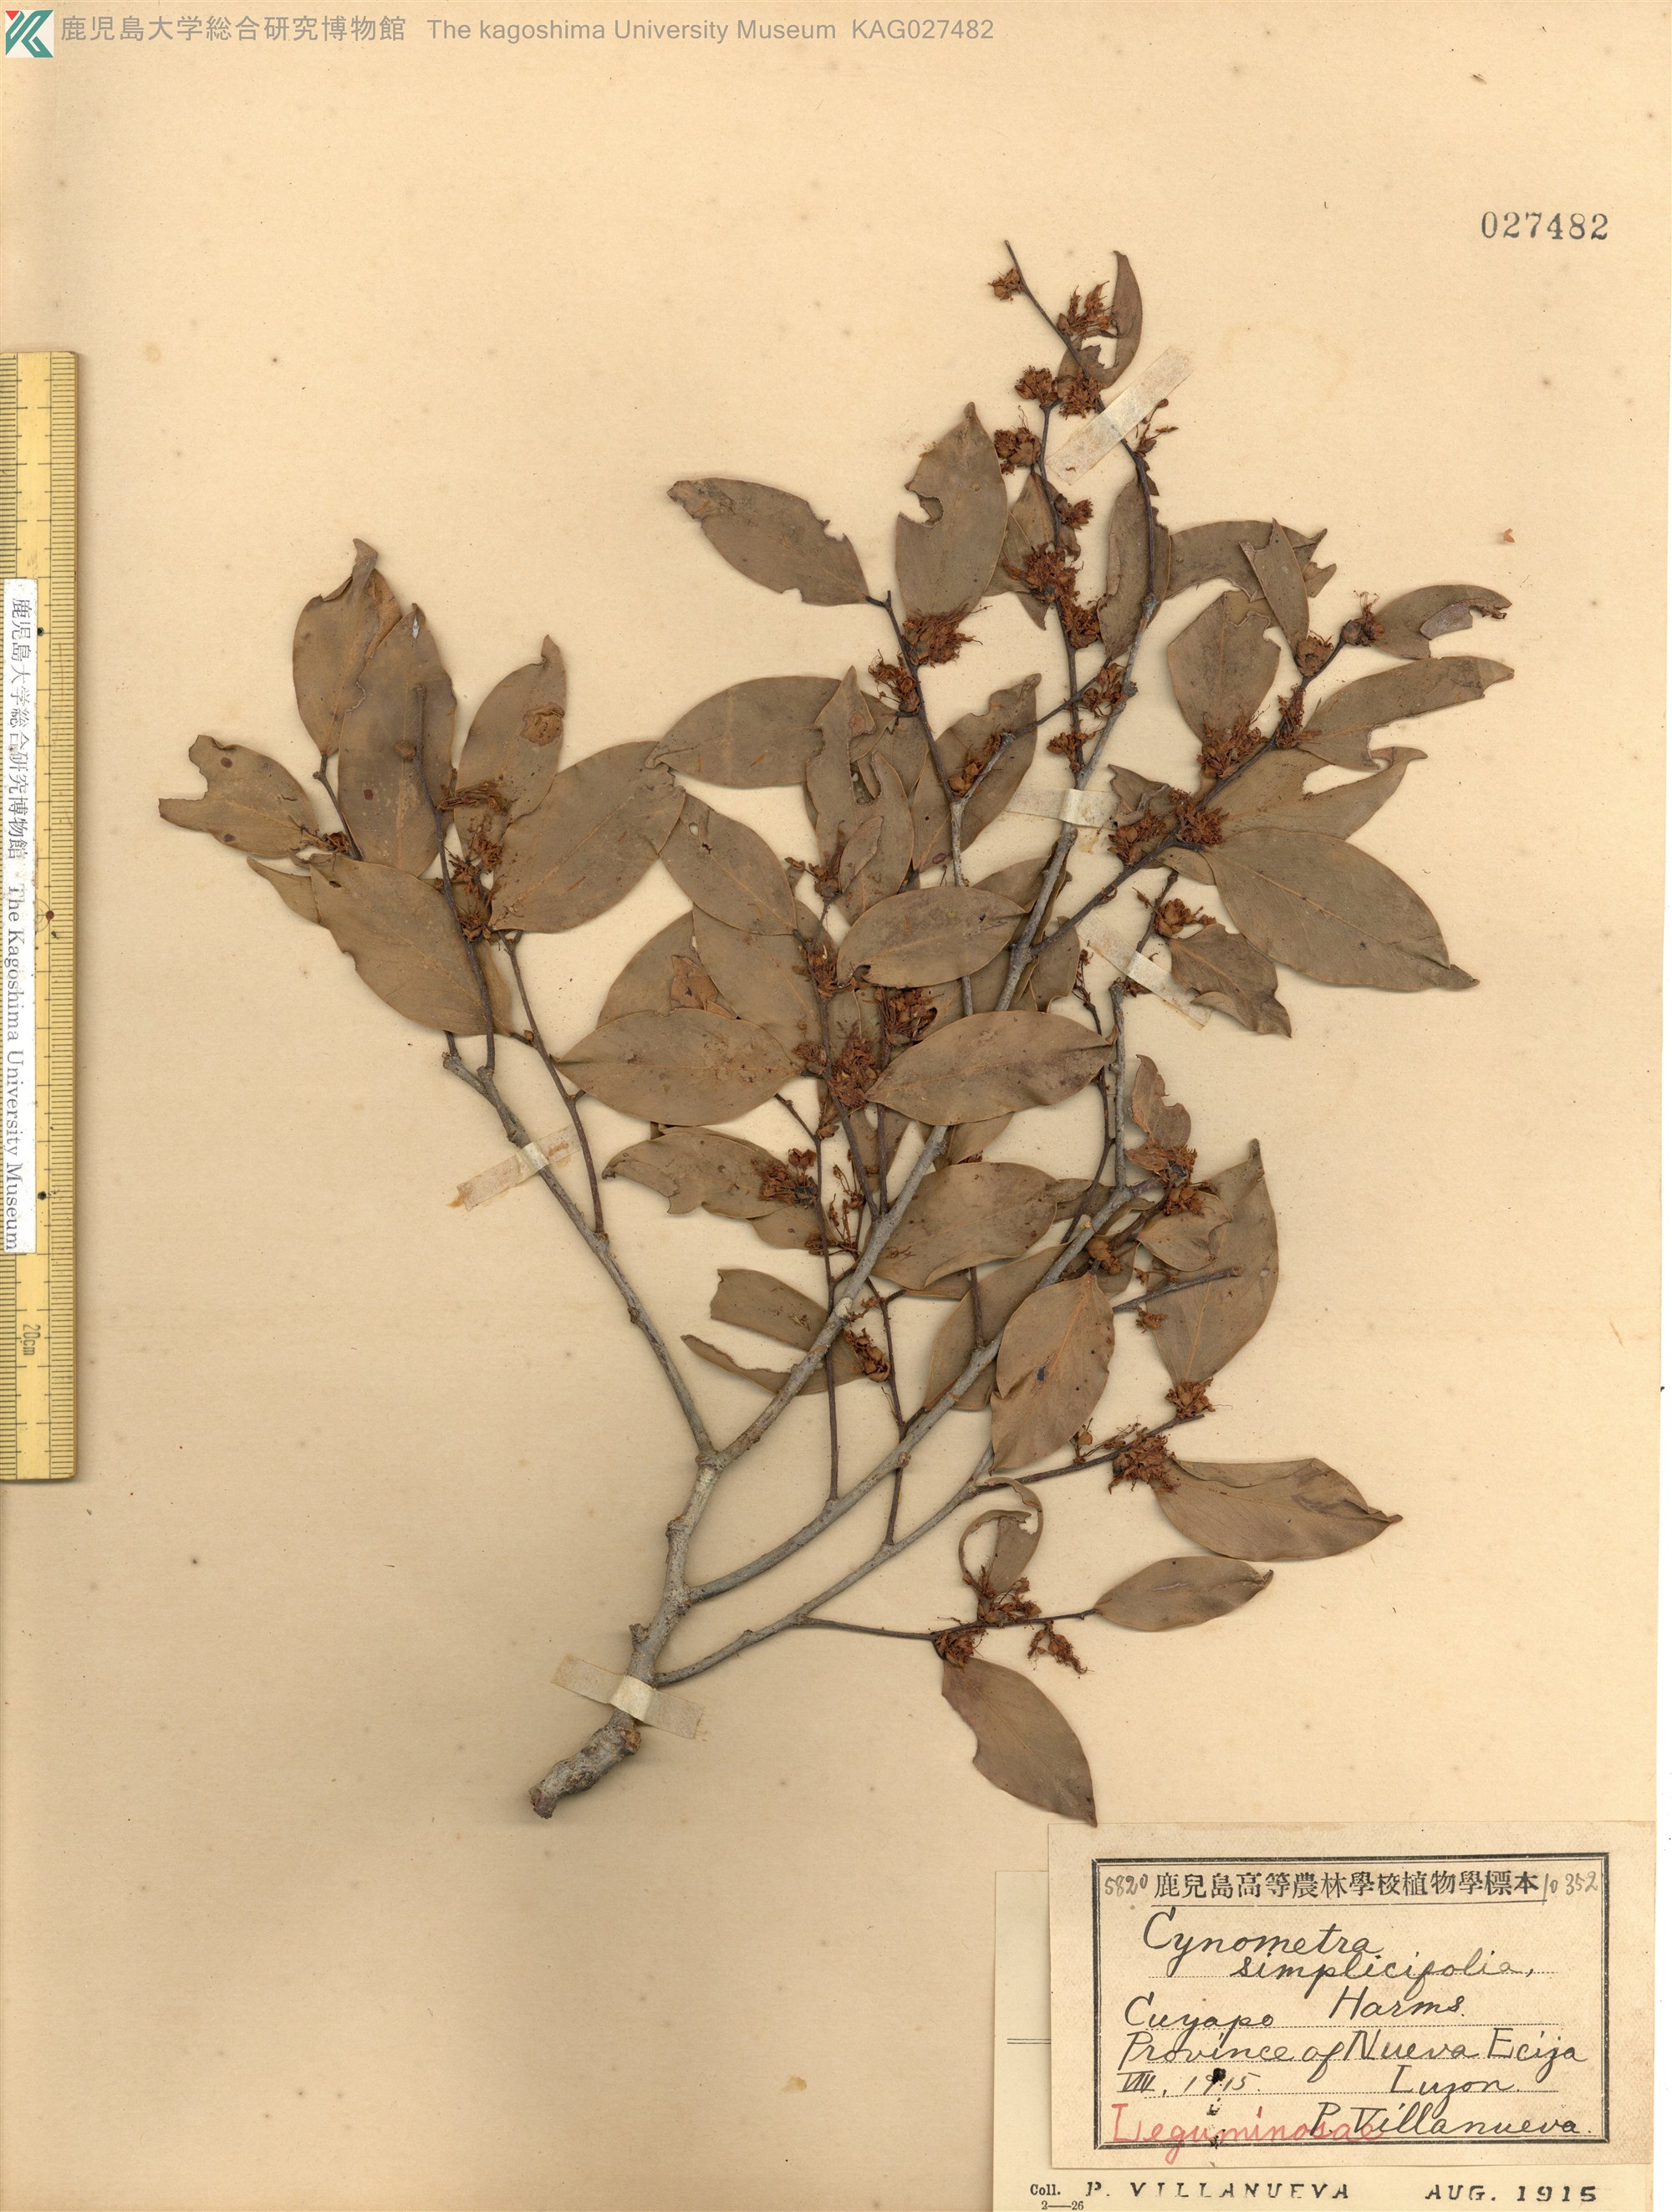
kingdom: Plantae
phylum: Tracheophyta
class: Magnoliopsida
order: Fabales
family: Fabaceae
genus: Cynometra
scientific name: Cynometra simplicifolia
